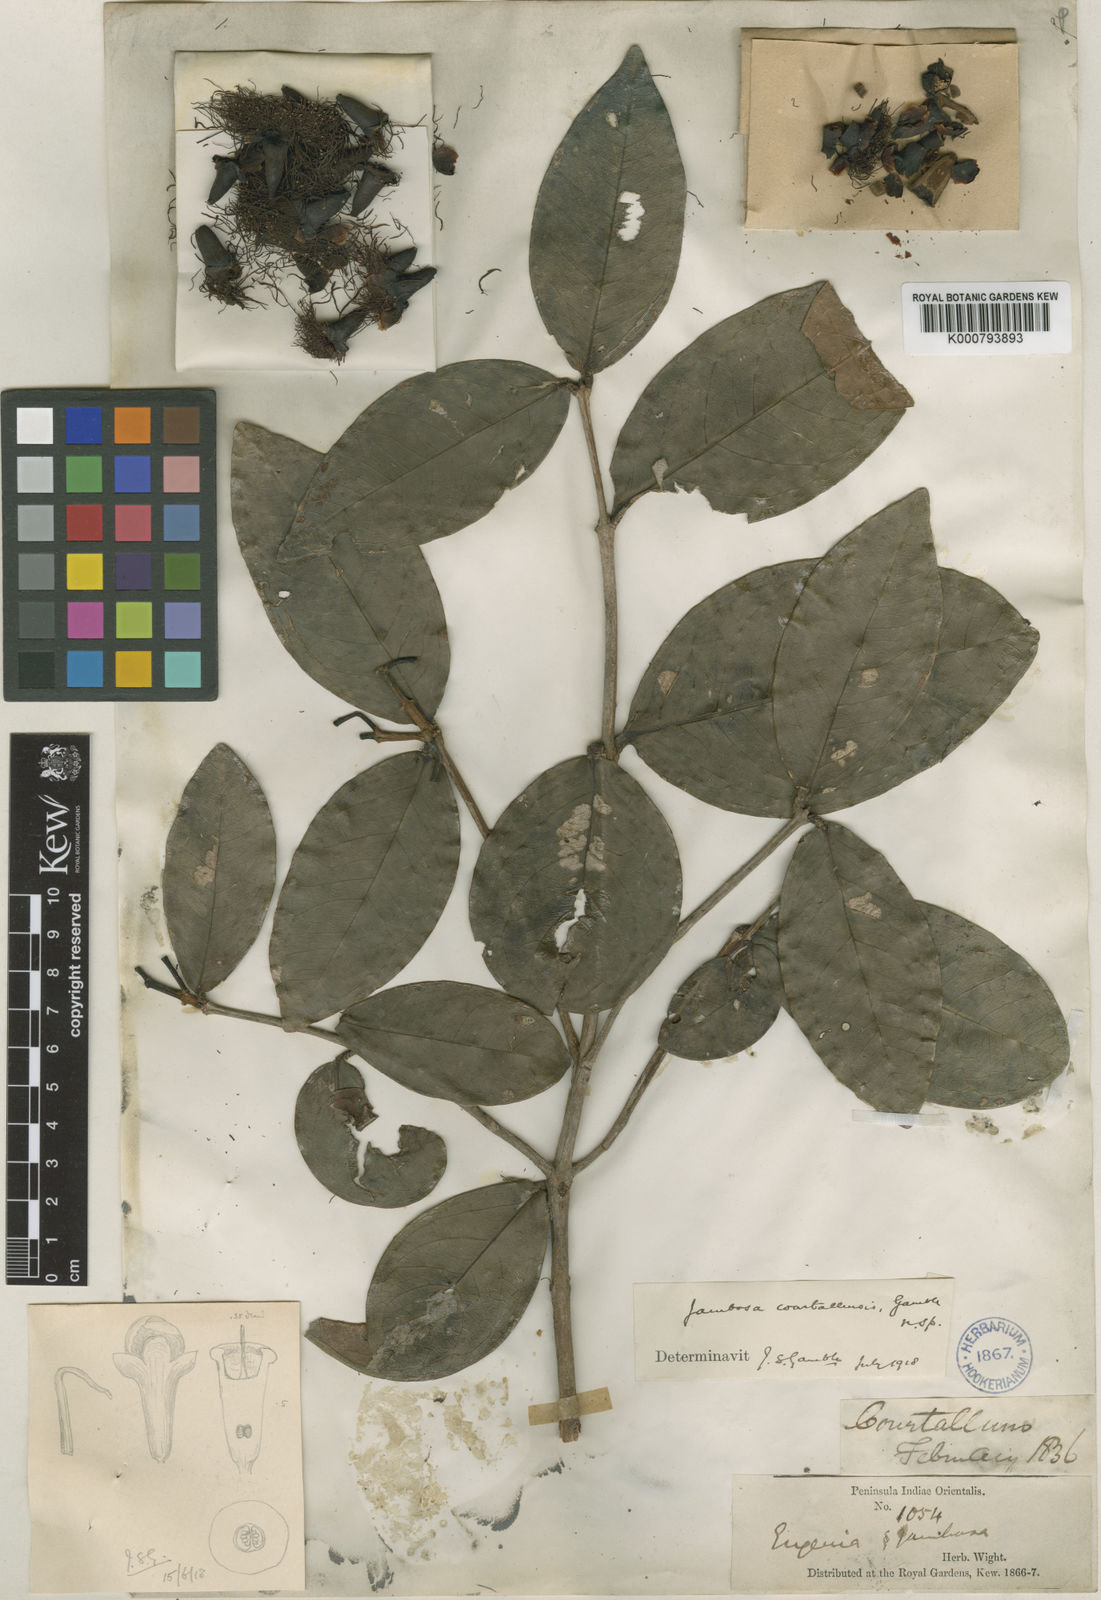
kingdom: Plantae
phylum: Tracheophyta
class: Magnoliopsida
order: Myrtales
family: Myrtaceae
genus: Syzygium
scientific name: Syzygium courtallense
